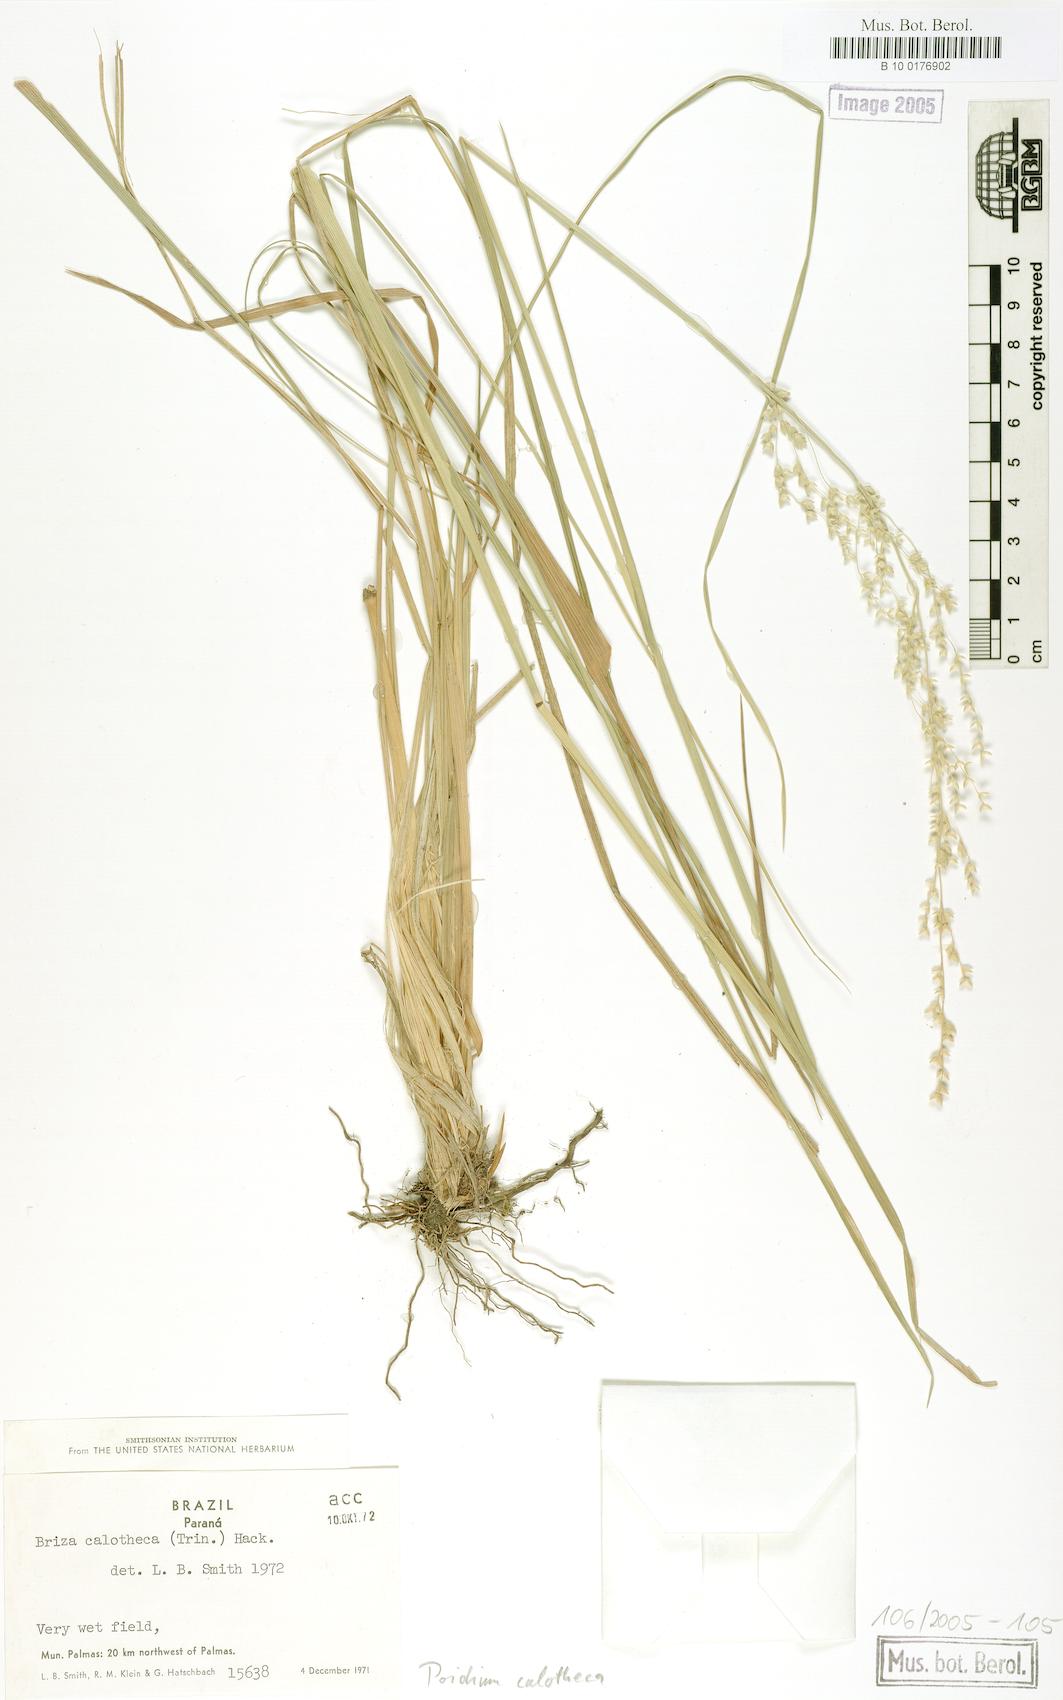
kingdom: Plantae
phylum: Tracheophyta
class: Liliopsida
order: Poales
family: Poaceae
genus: Poidium
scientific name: Poidium calotheca
